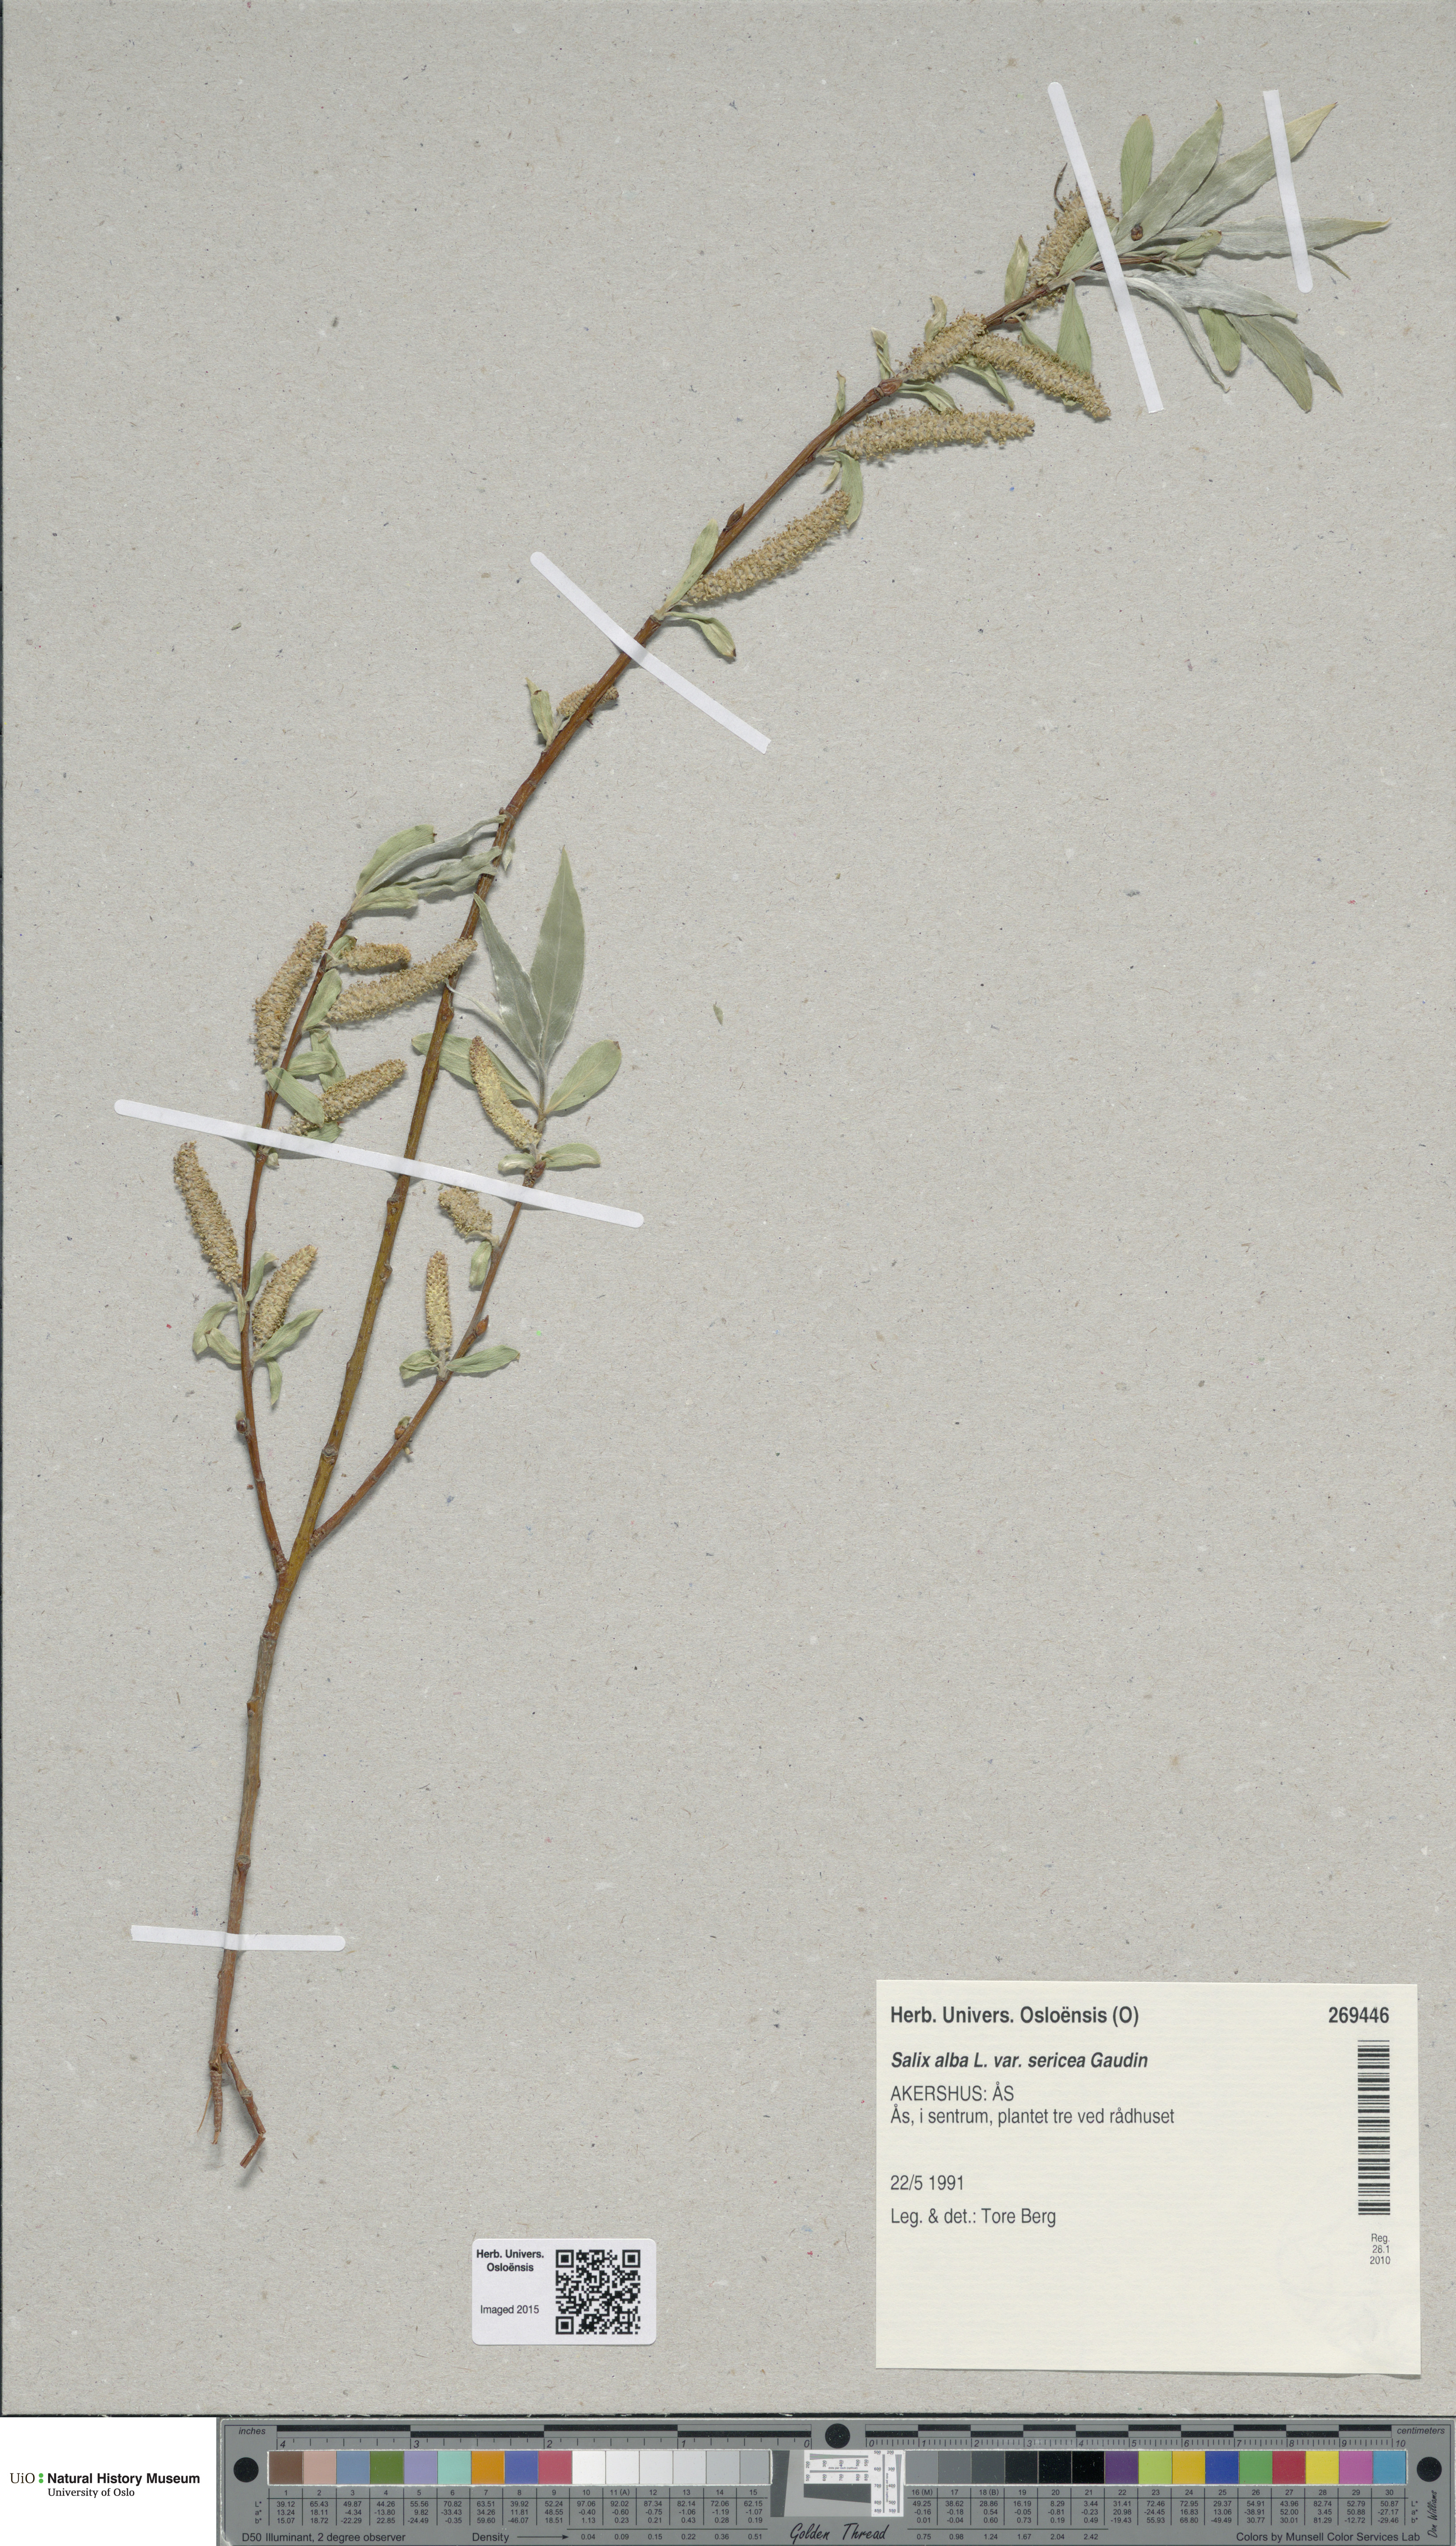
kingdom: Plantae
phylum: Tracheophyta
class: Magnoliopsida
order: Malpighiales
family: Salicaceae
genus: Salix
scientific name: Salix alba
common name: White willow
